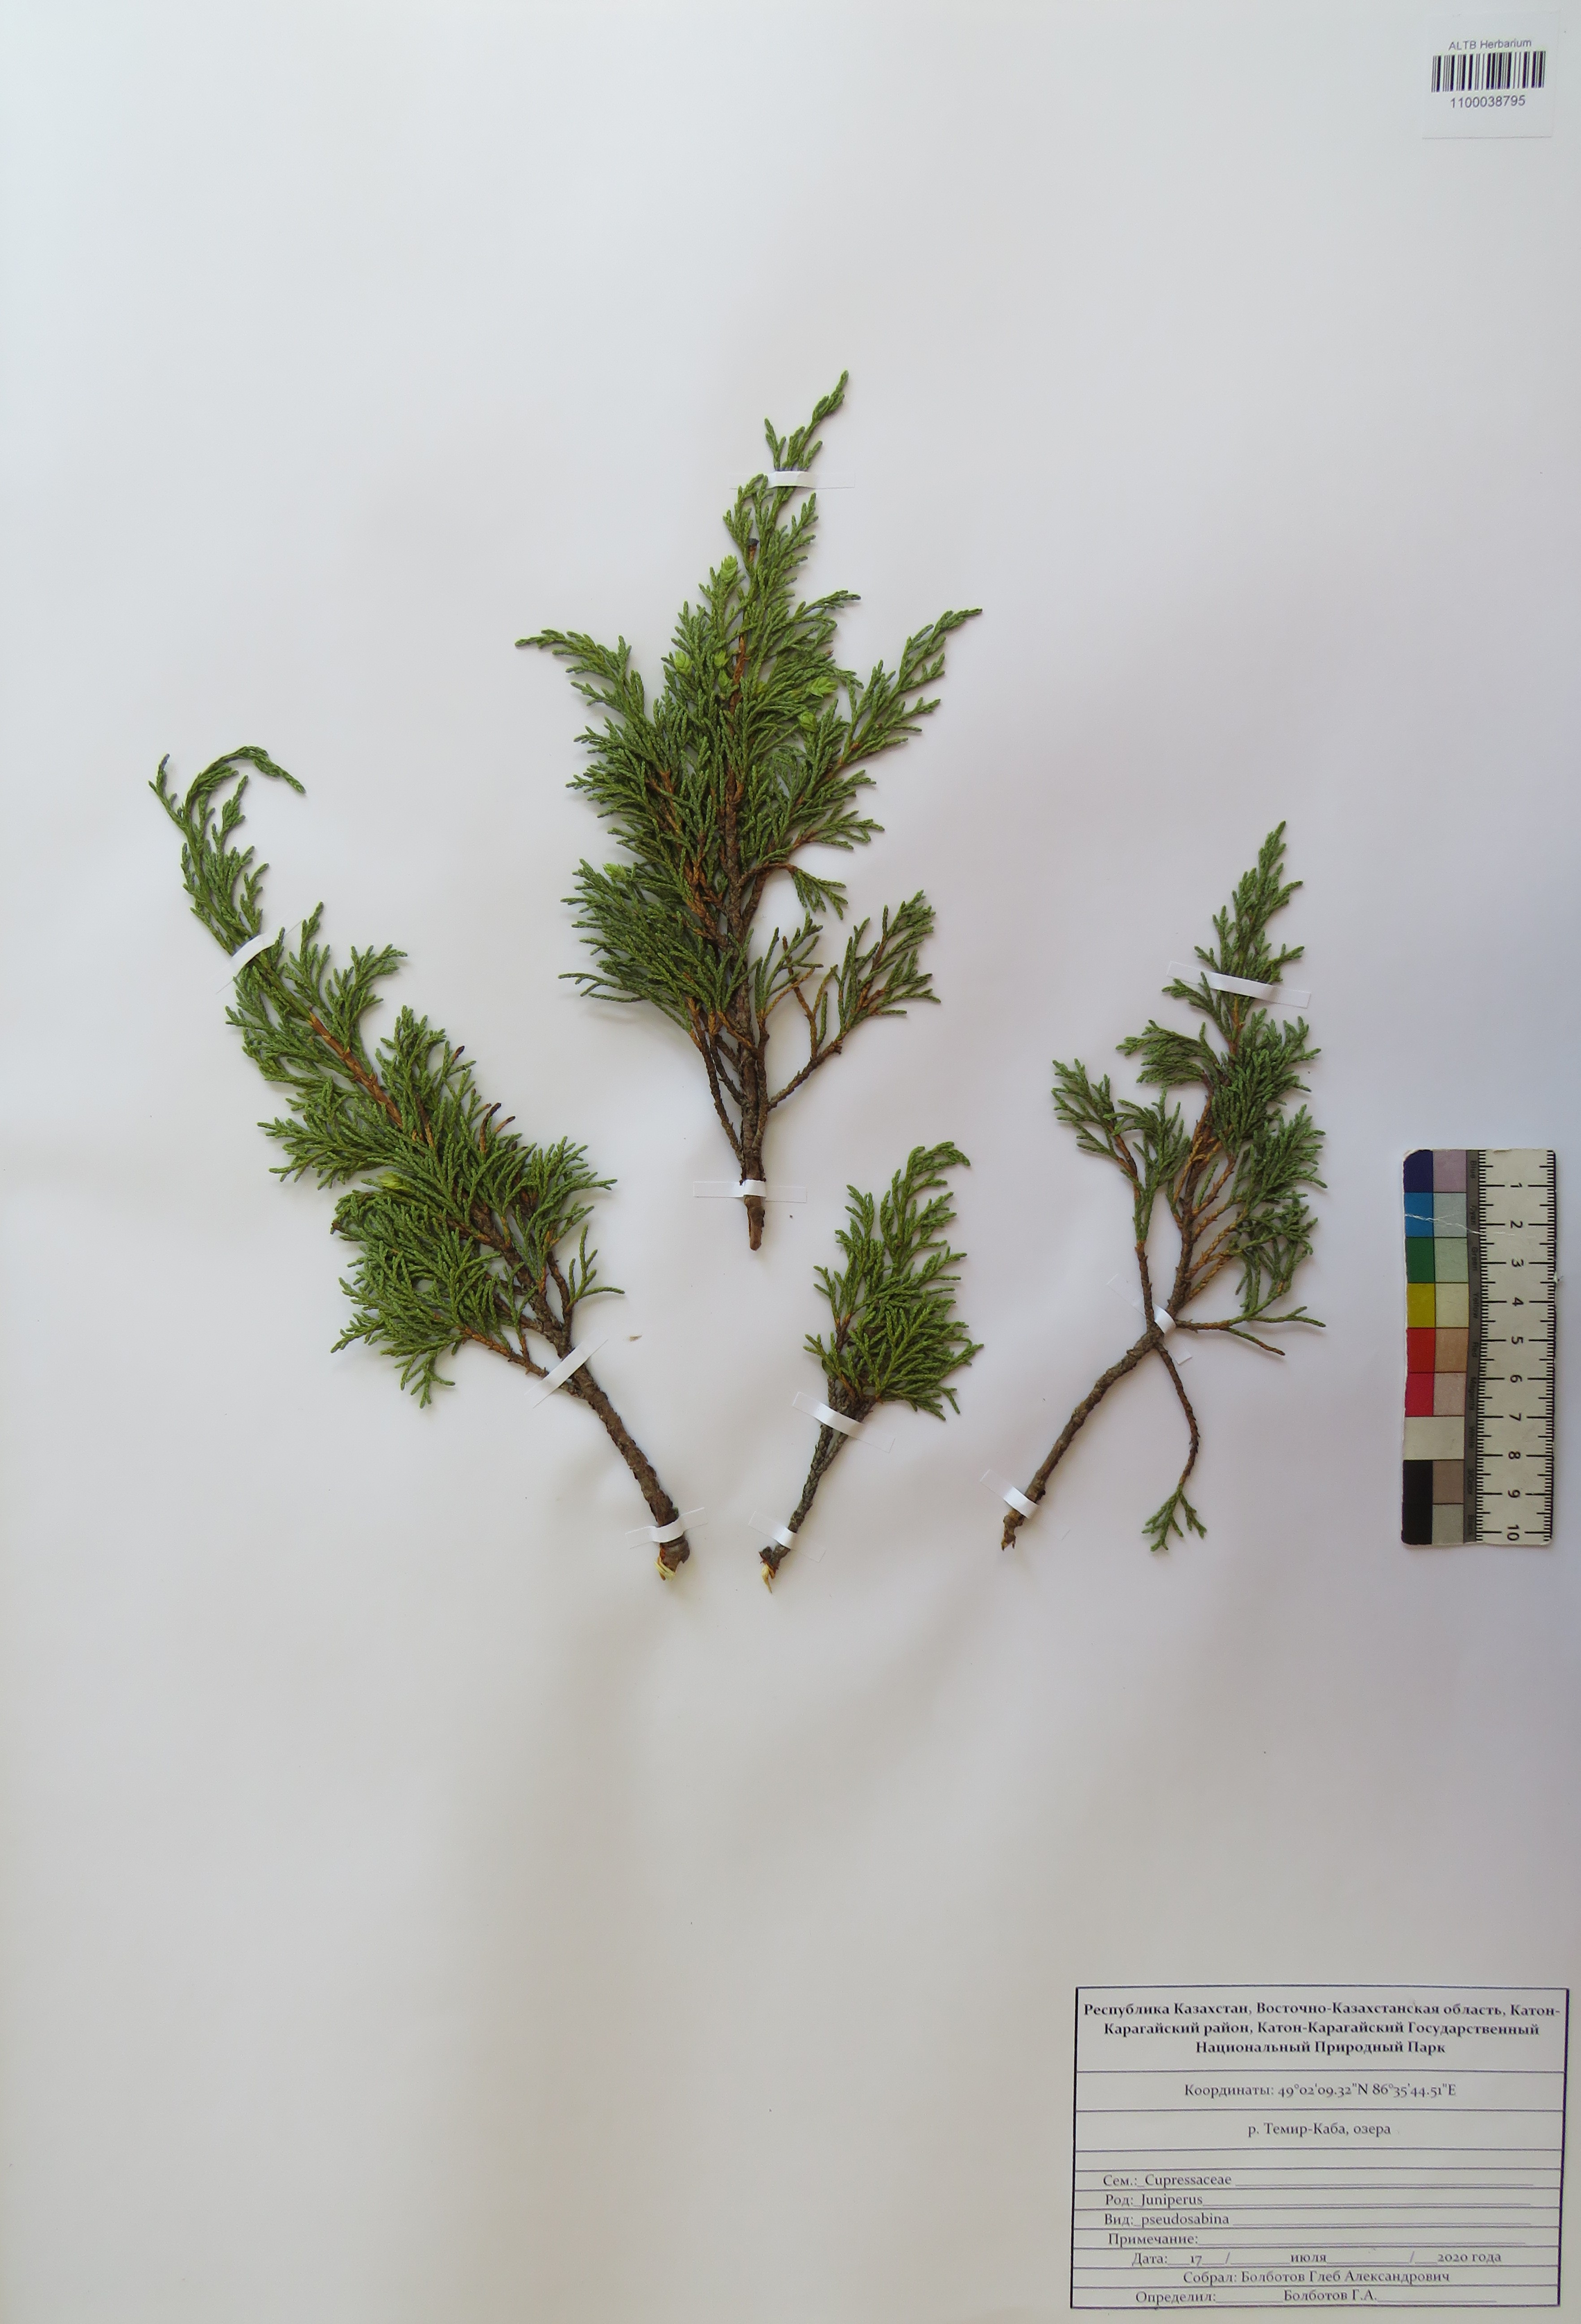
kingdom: Plantae
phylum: Tracheophyta
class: Pinopsida
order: Pinales
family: Cupressaceae
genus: Juniperus
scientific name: Juniperus pseudosabina
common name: Turkestan juniper
